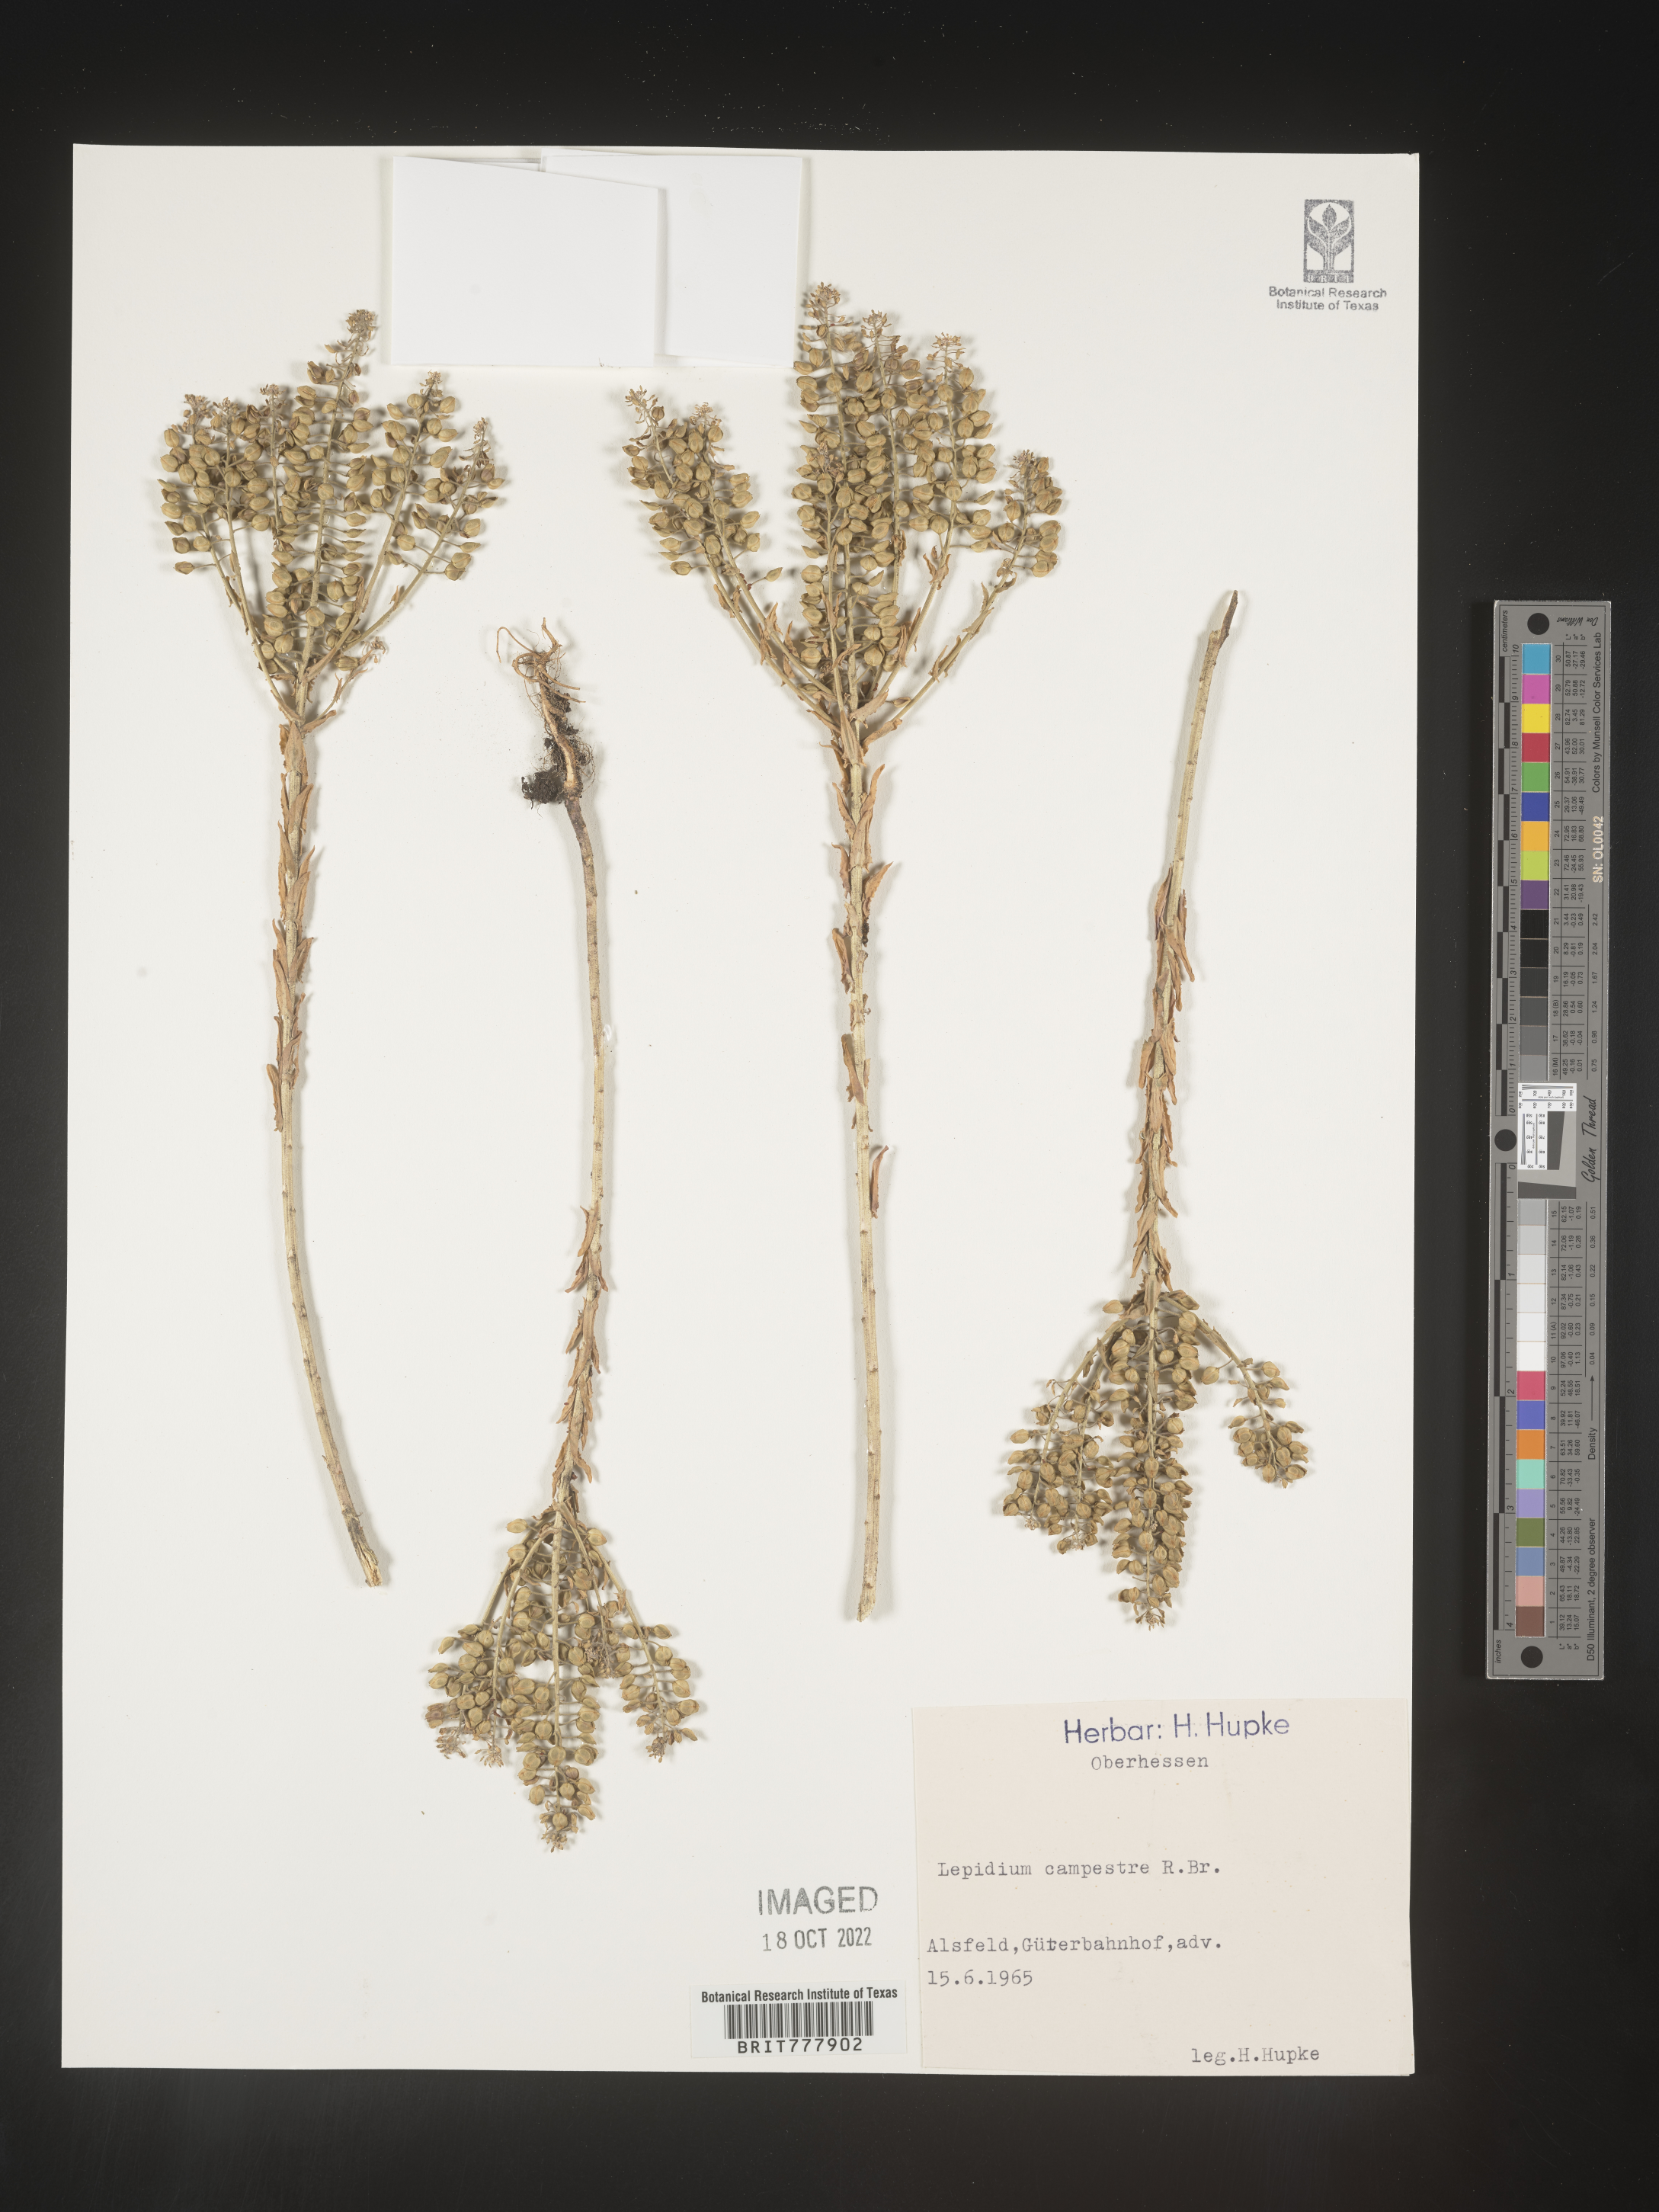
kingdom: Plantae
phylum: Tracheophyta
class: Magnoliopsida
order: Brassicales
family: Brassicaceae
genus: Lepidium
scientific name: Lepidium
